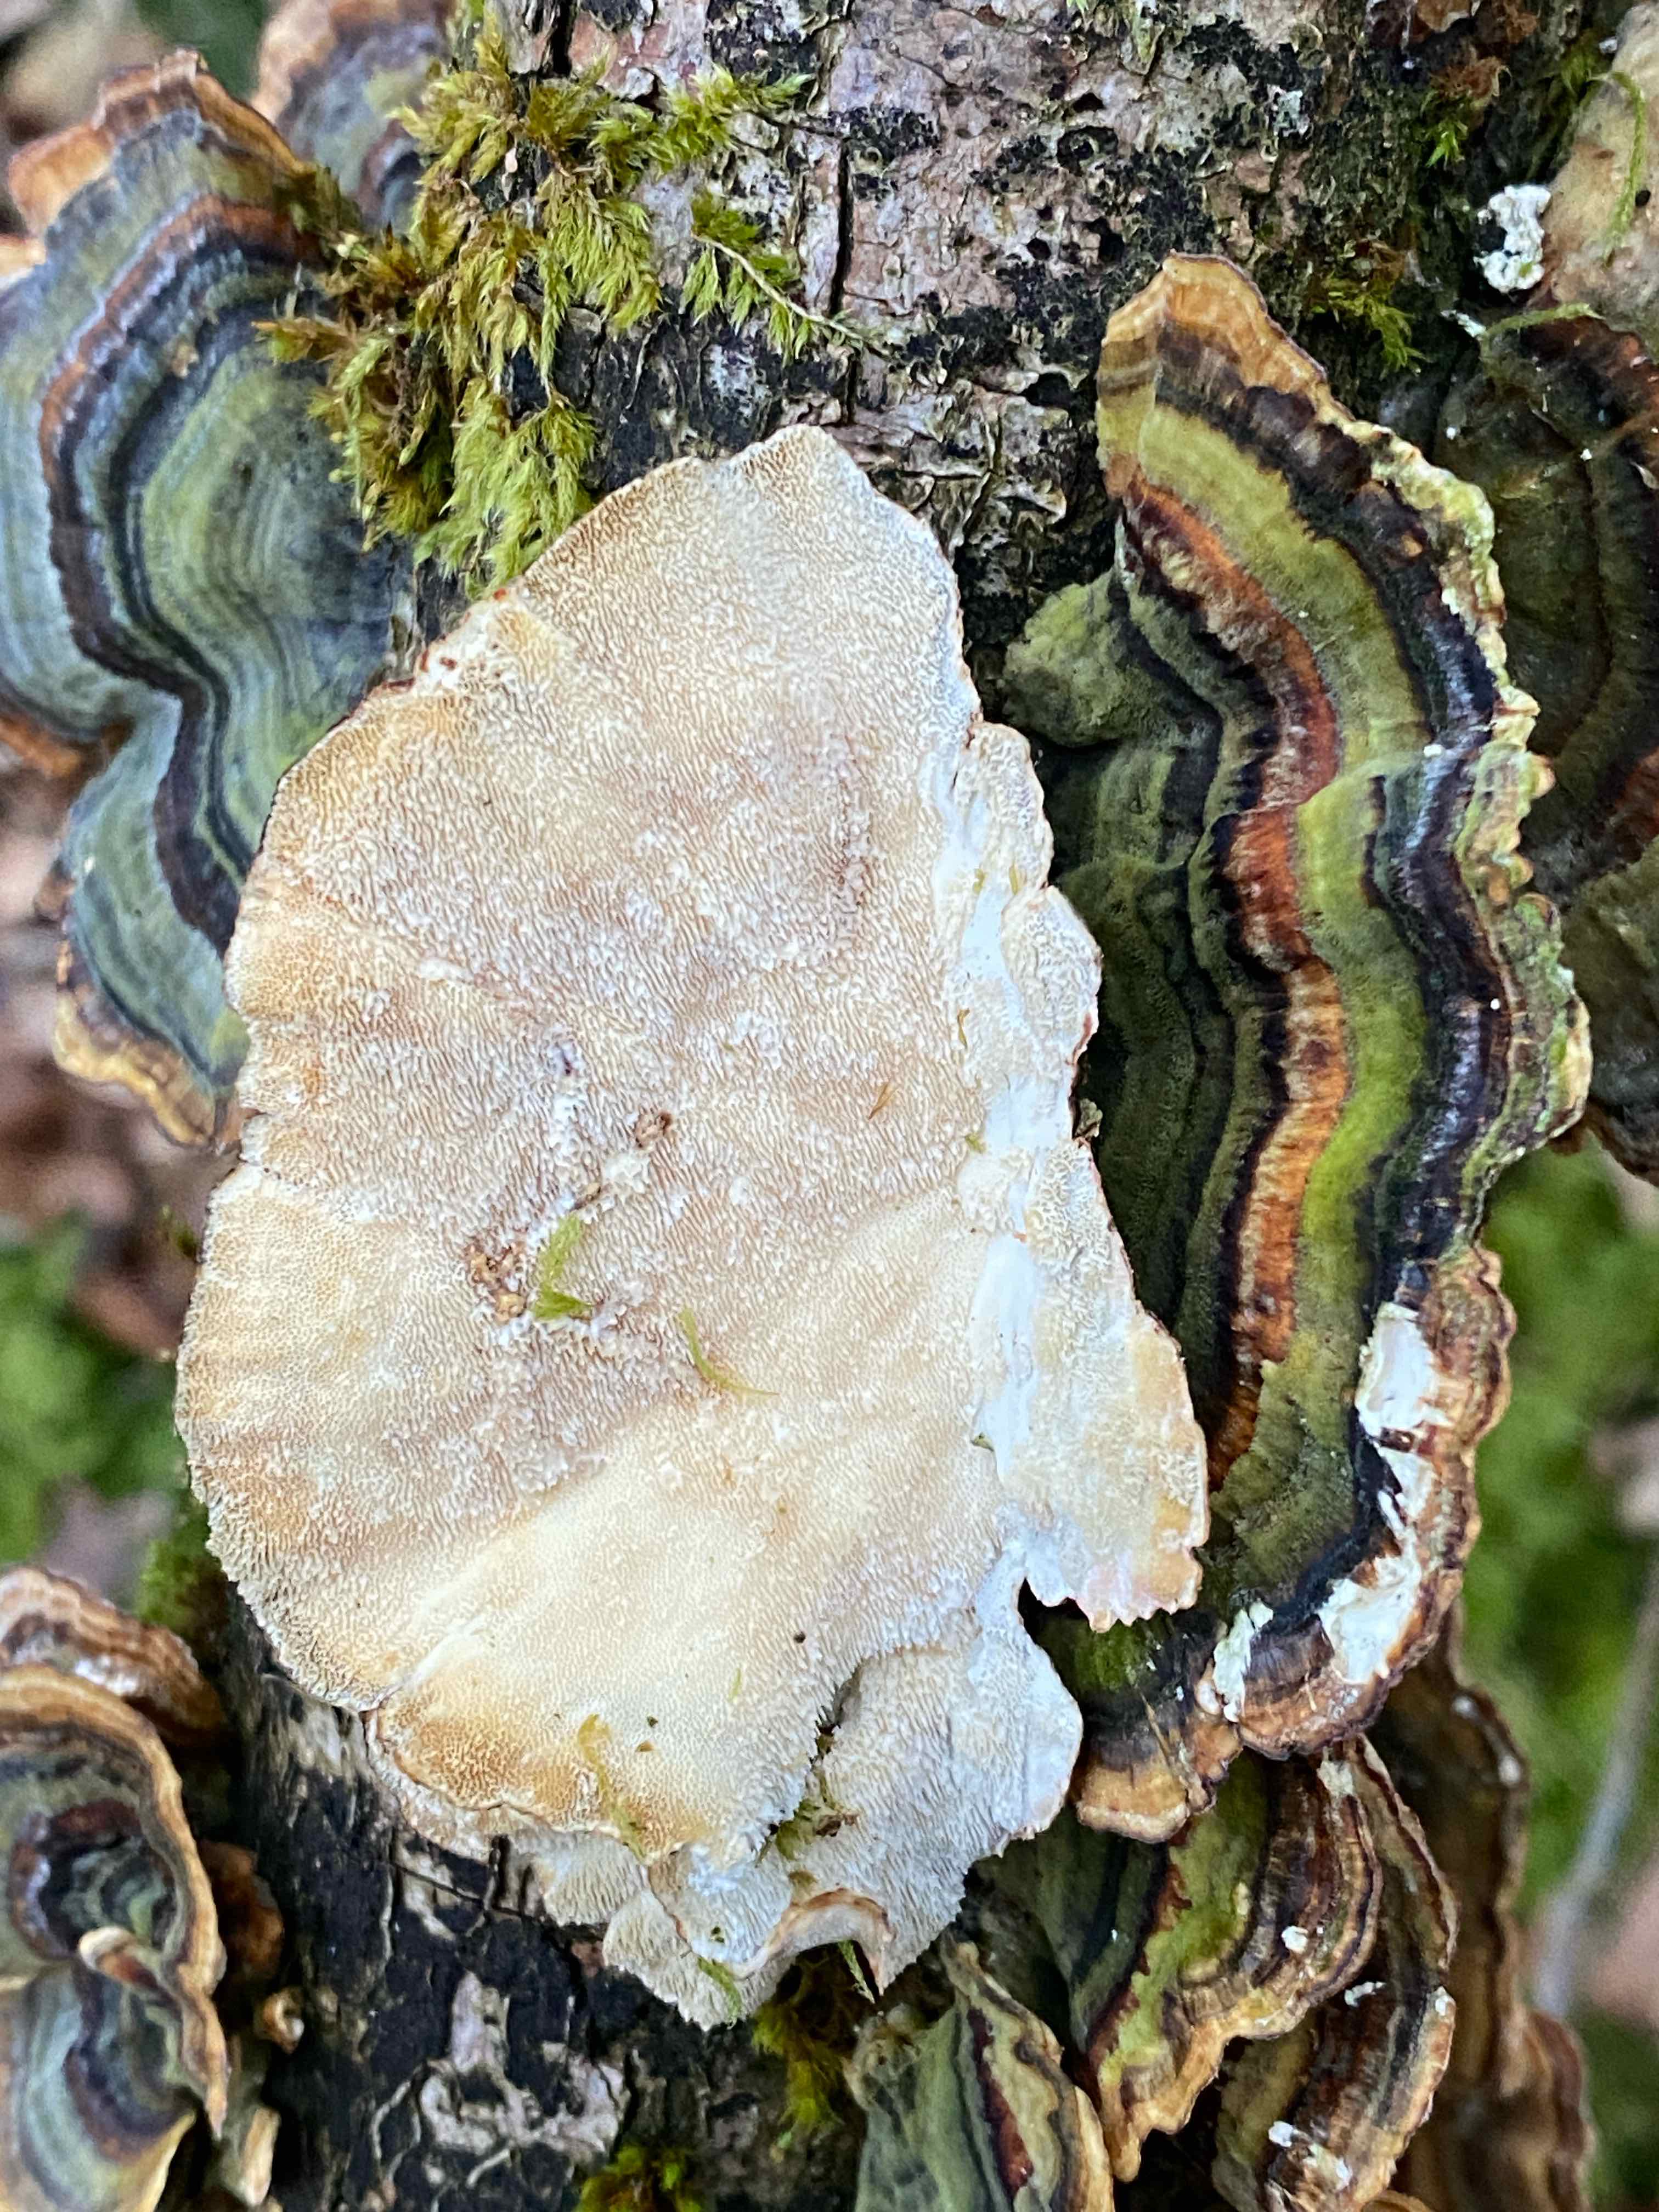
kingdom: Fungi
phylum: Basidiomycota
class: Agaricomycetes
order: Polyporales
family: Polyporaceae
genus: Trametes
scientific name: Trametes versicolor
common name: broget læderporesvamp
